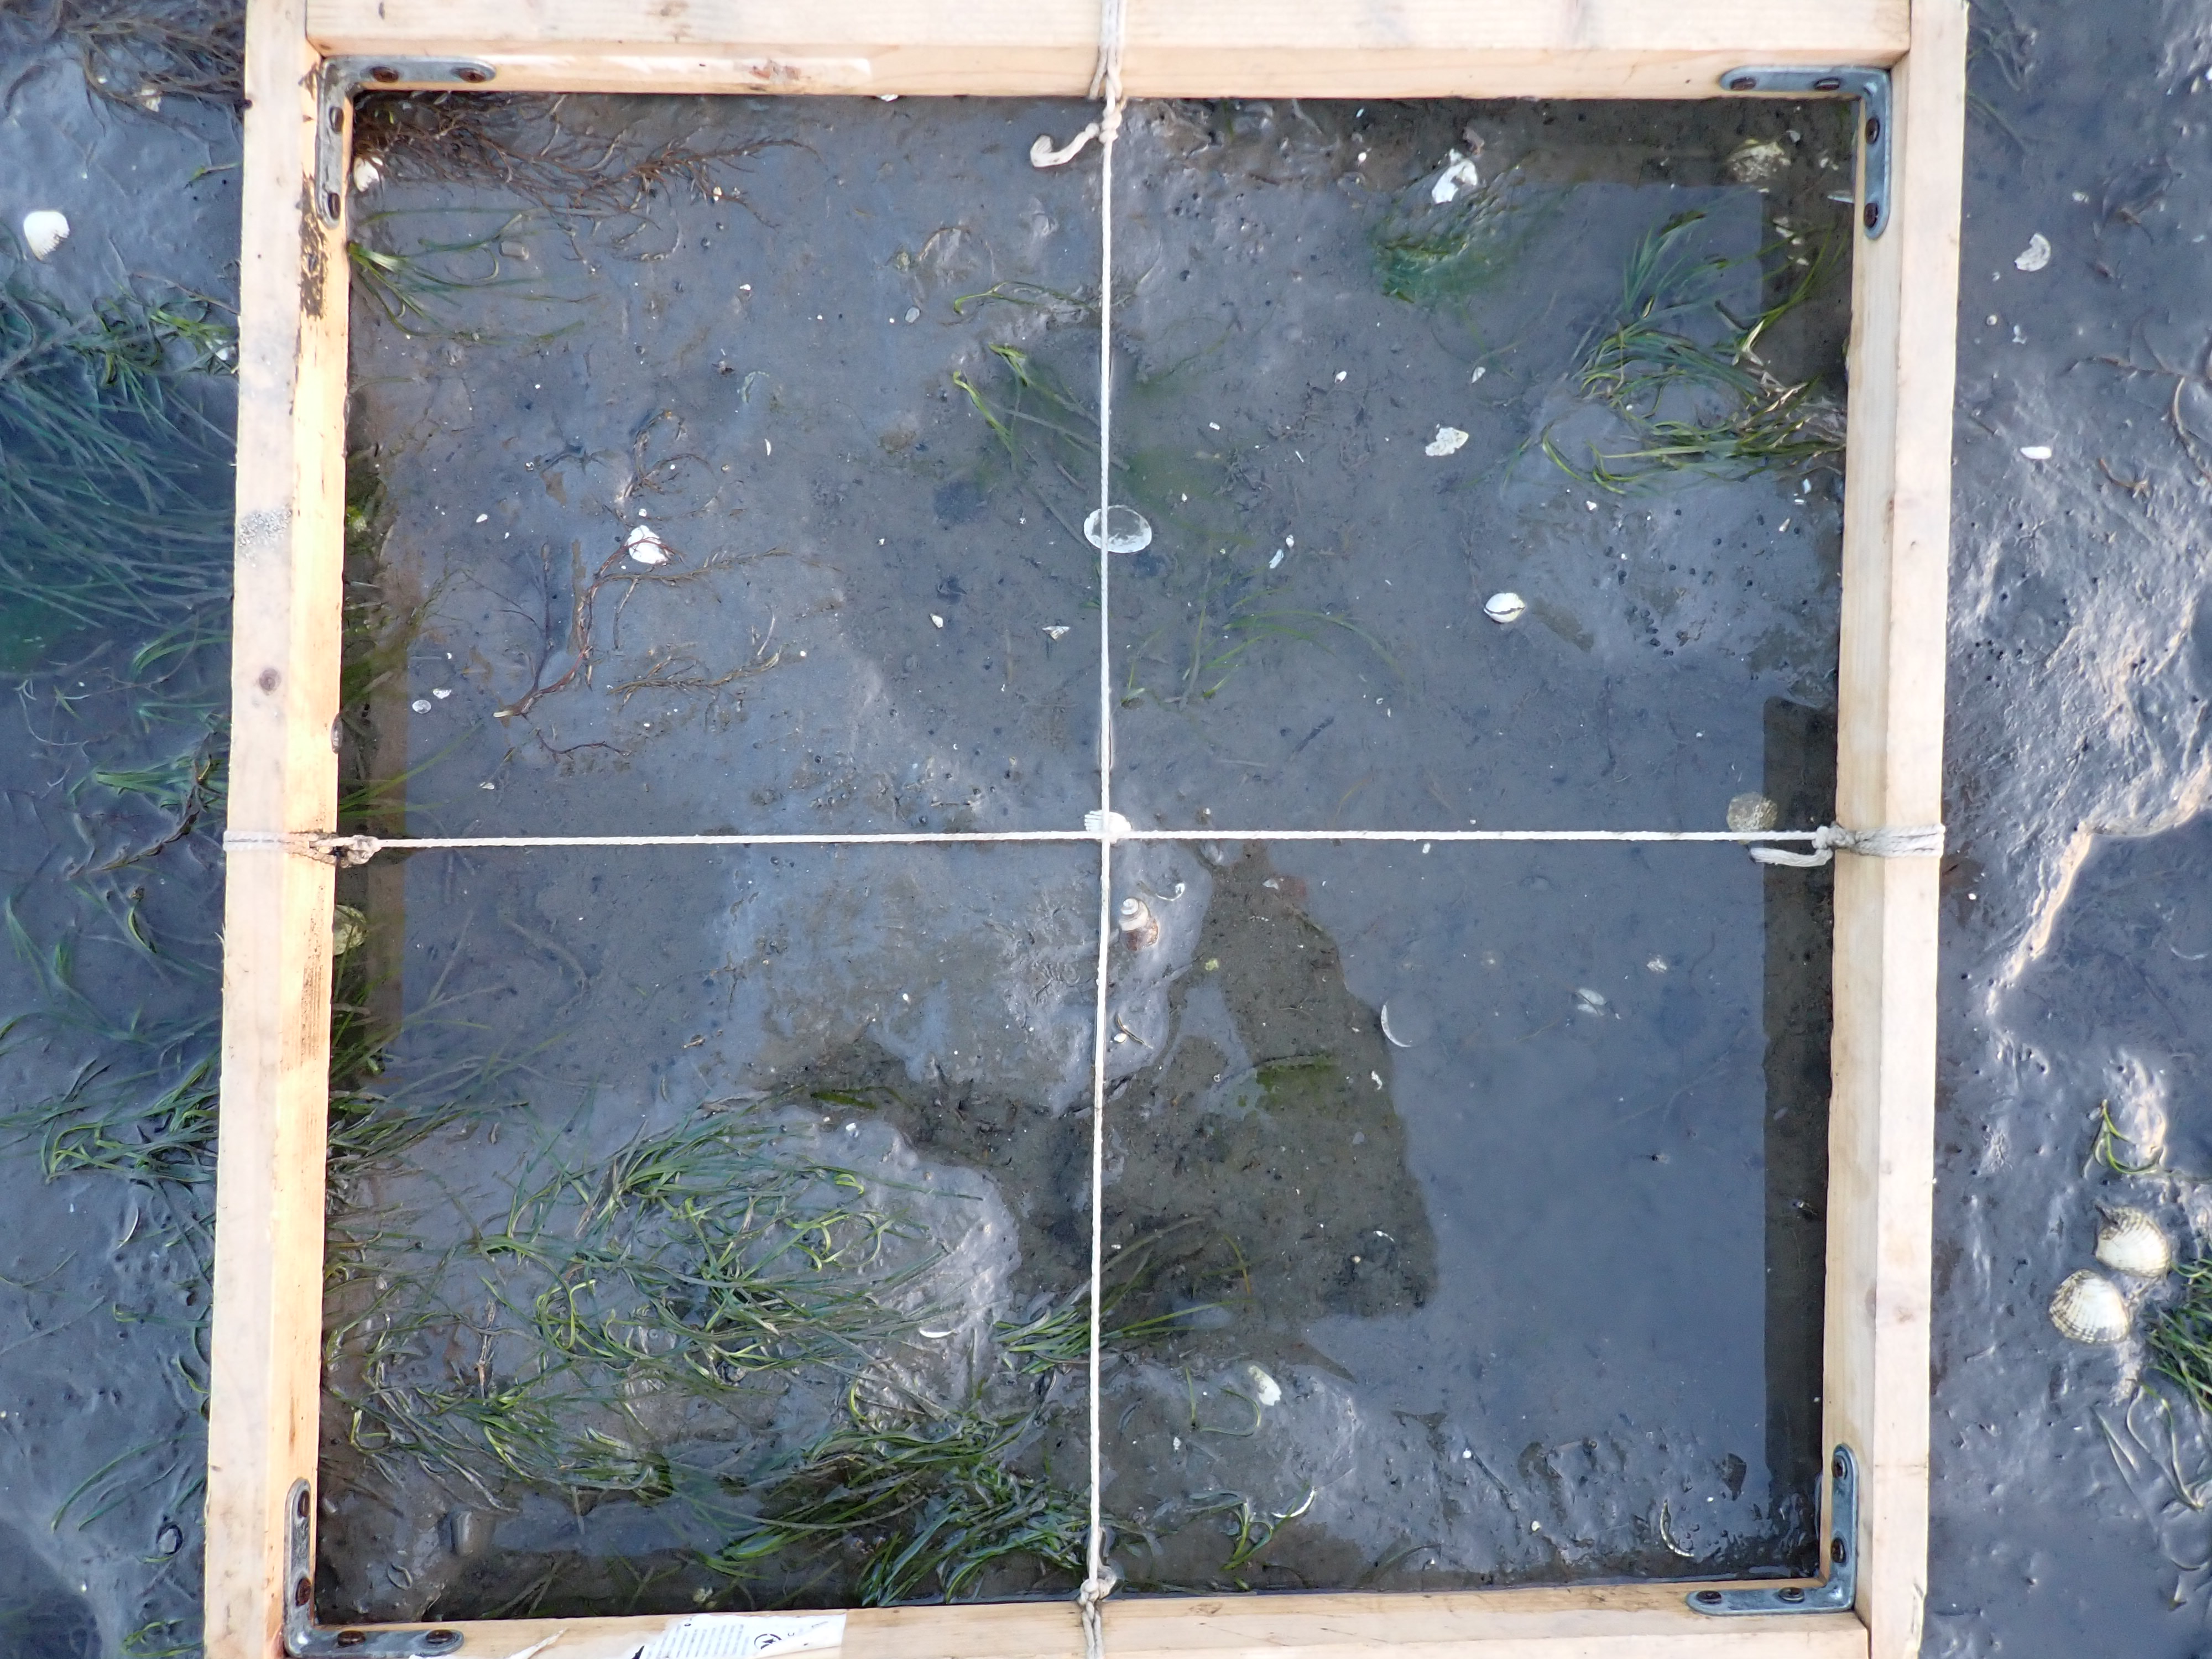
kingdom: Plantae
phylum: Tracheophyta
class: Liliopsida
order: Alismatales
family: Zosteraceae
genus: Zostera
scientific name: Zostera noltii
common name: Dwarf eelgrass
